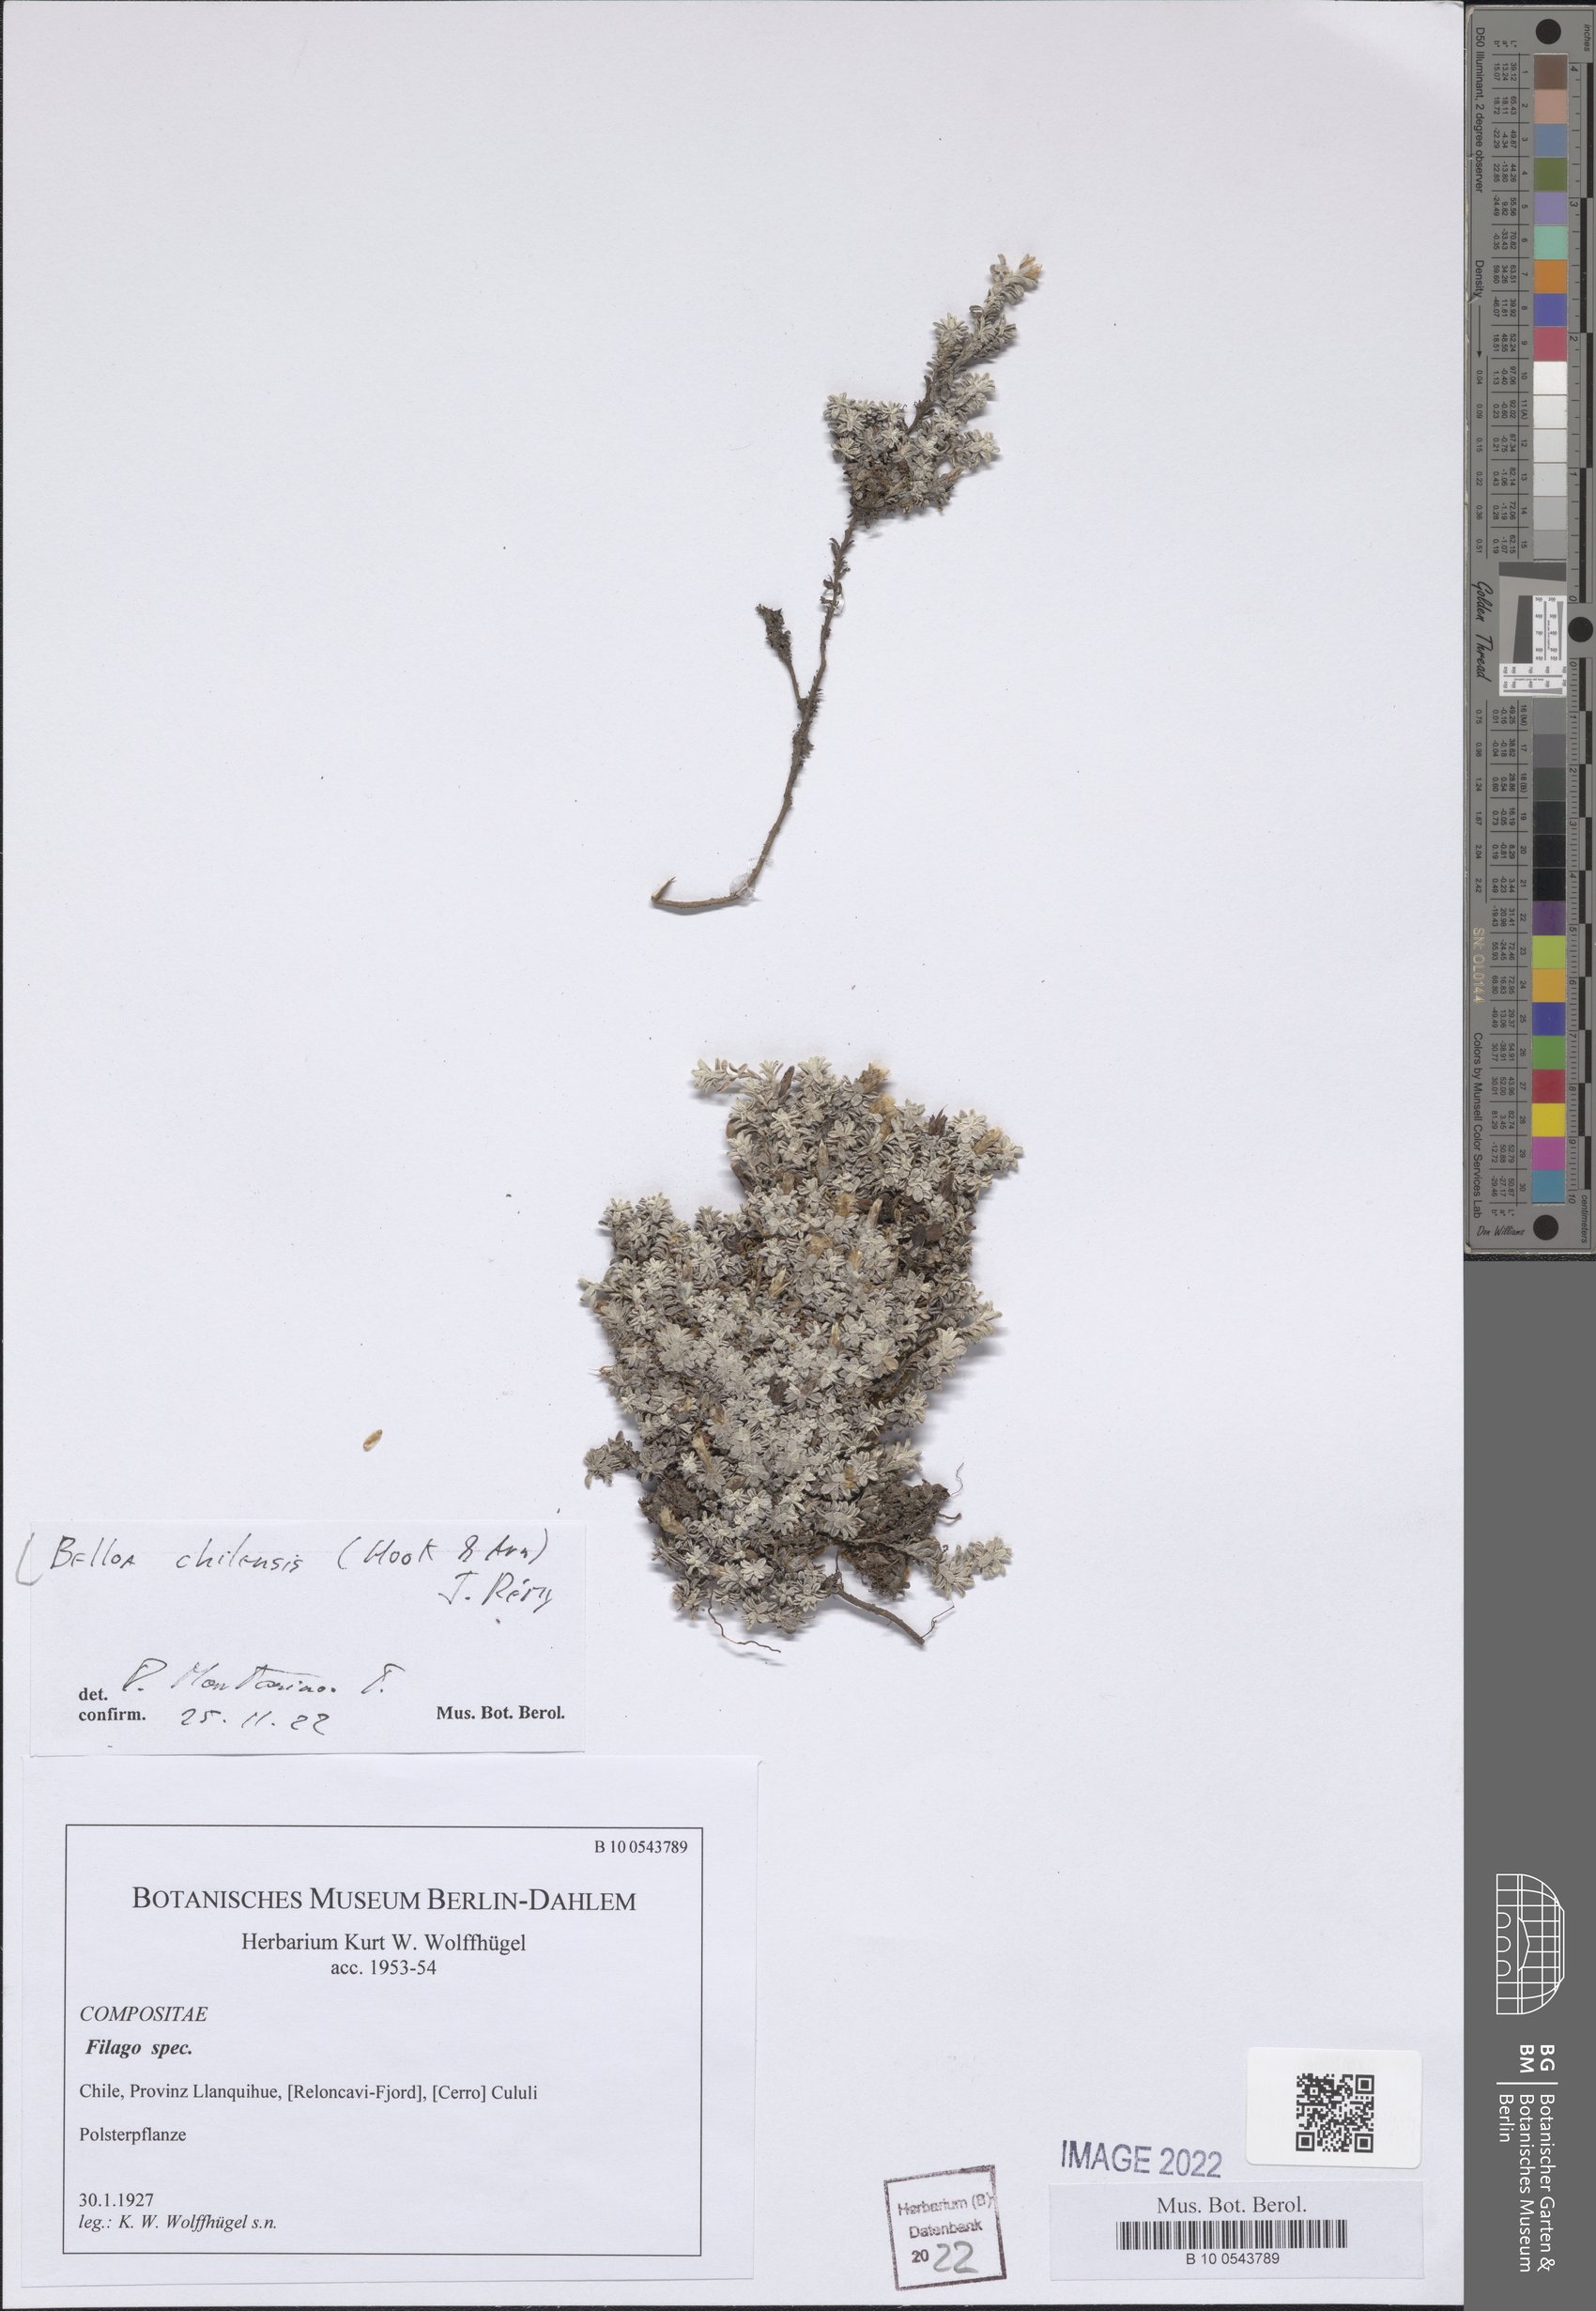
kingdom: Plantae
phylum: Tracheophyta
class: Magnoliopsida
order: Asterales
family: Asteraceae
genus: Belloa
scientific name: Belloa chilensis
